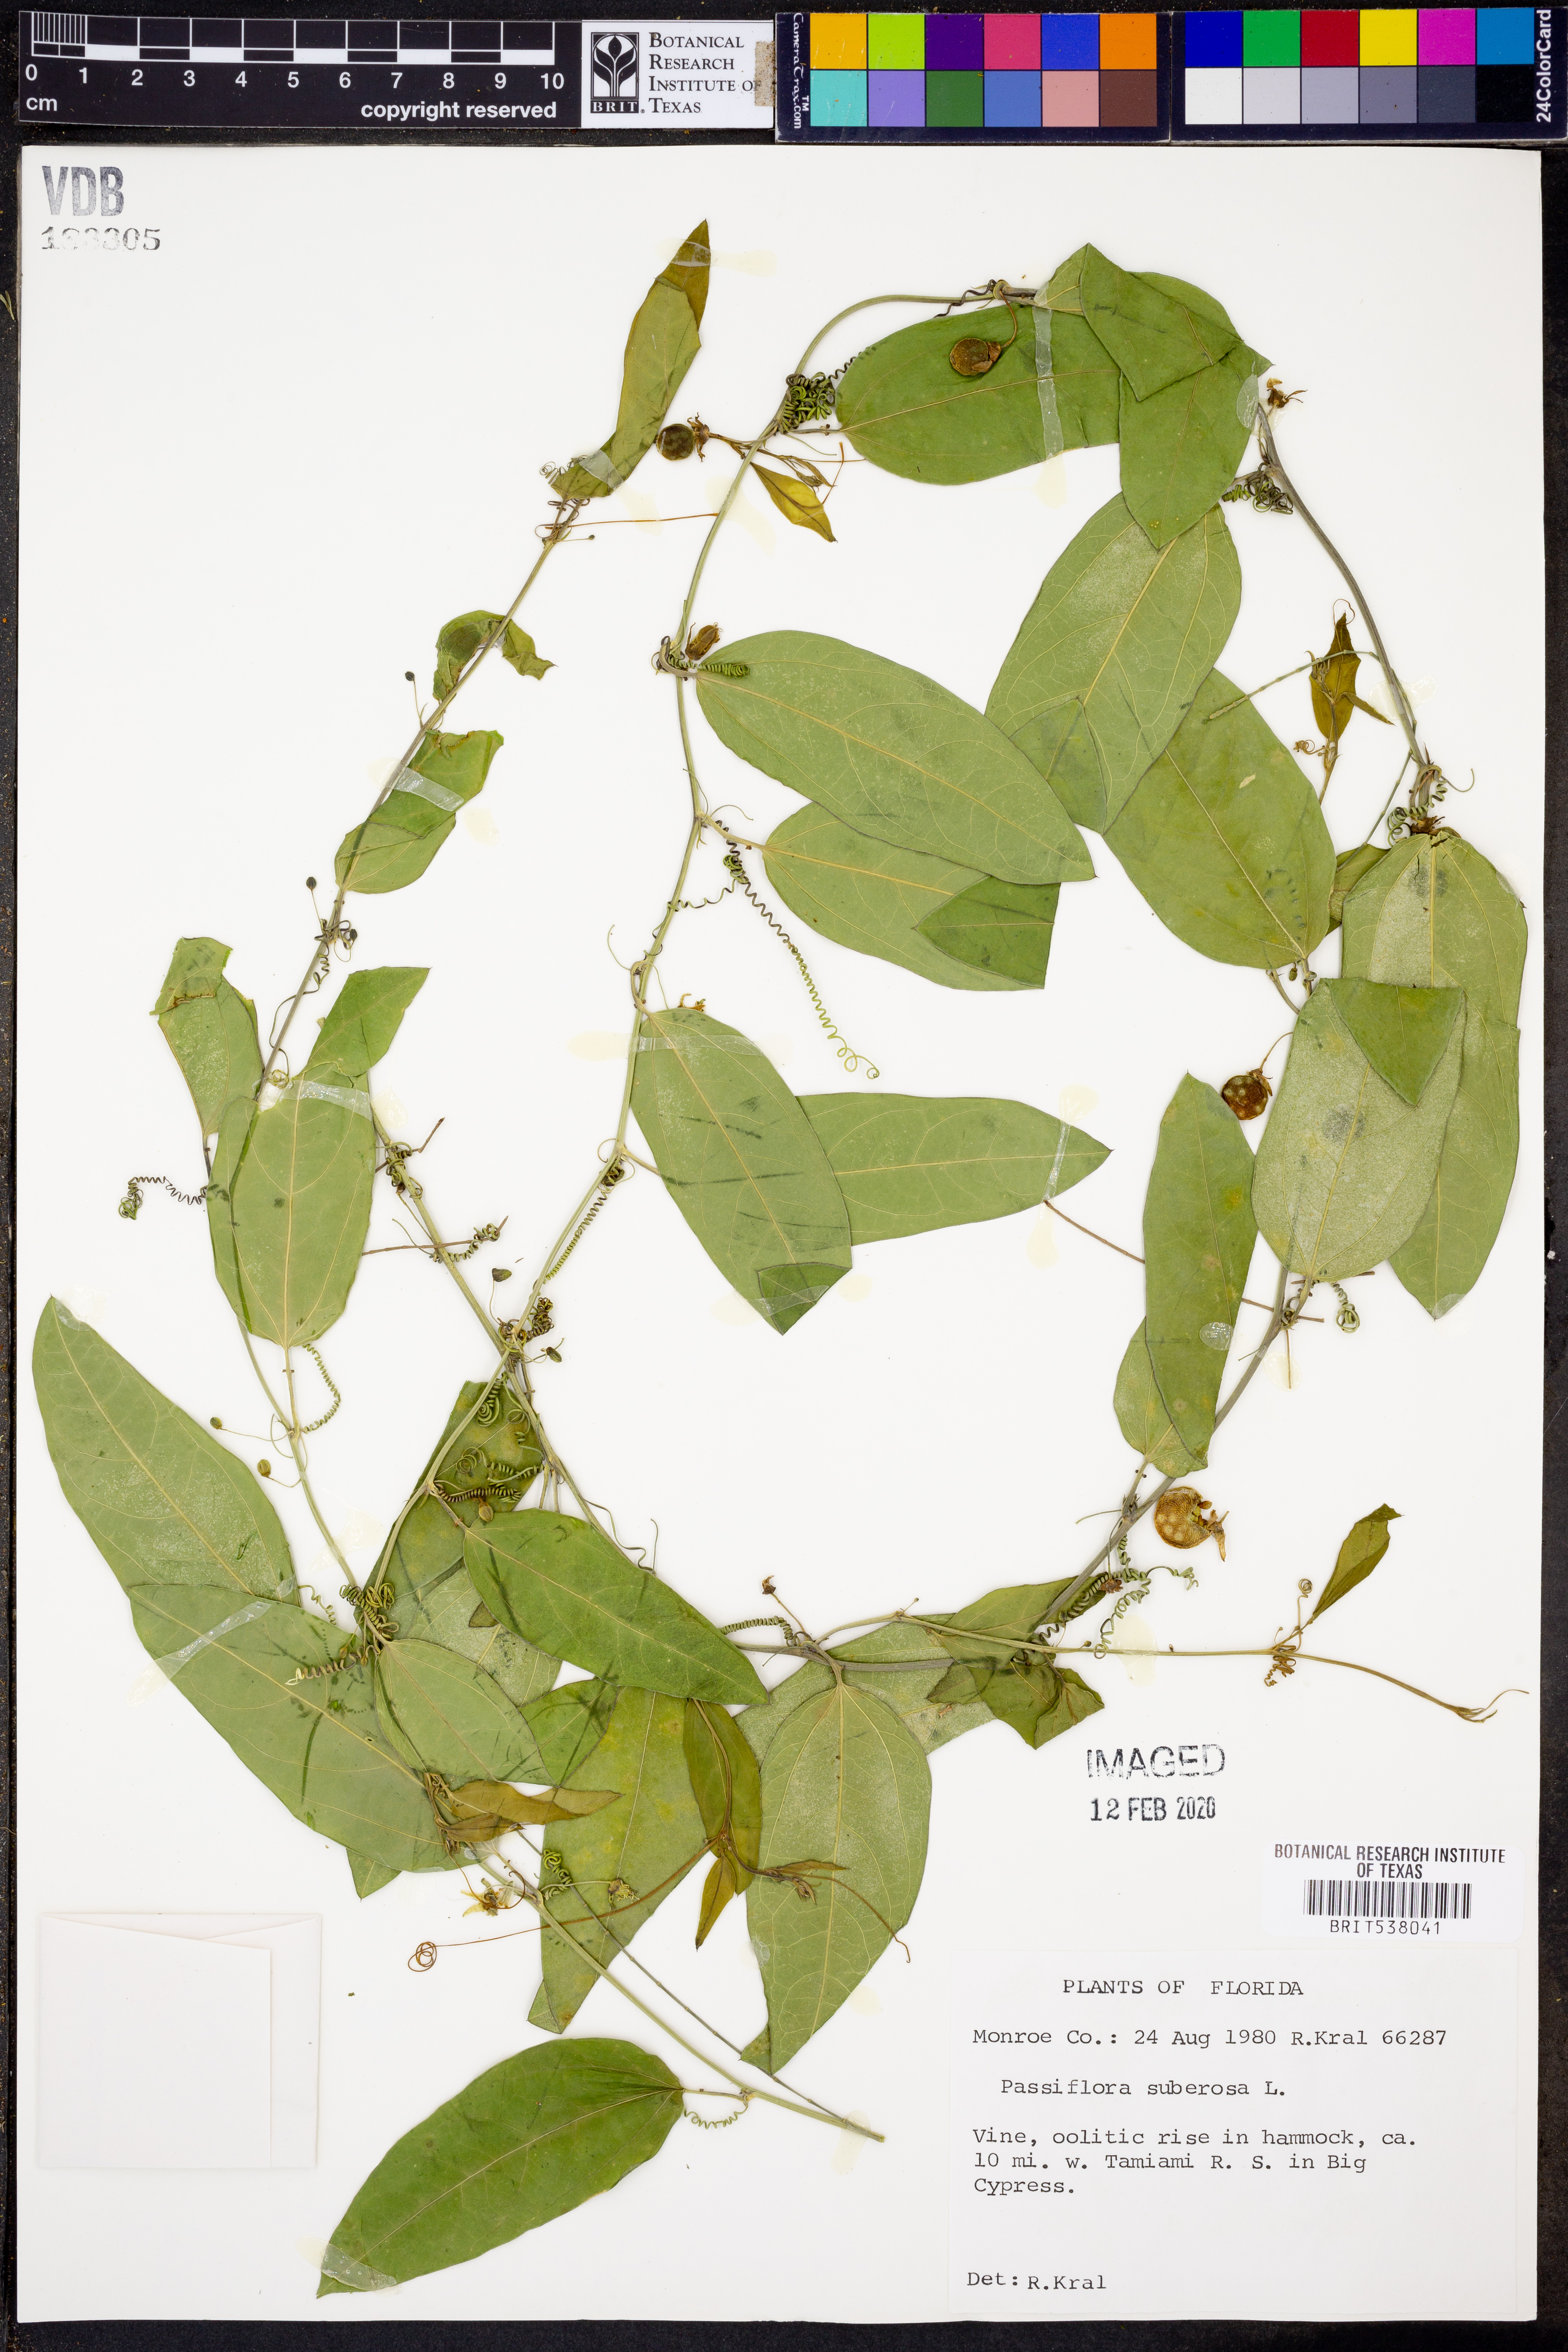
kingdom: Plantae
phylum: Tracheophyta
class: Magnoliopsida
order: Malpighiales
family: Passifloraceae
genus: Passiflora
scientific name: Passiflora suberosa
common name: Wild passionfruit
